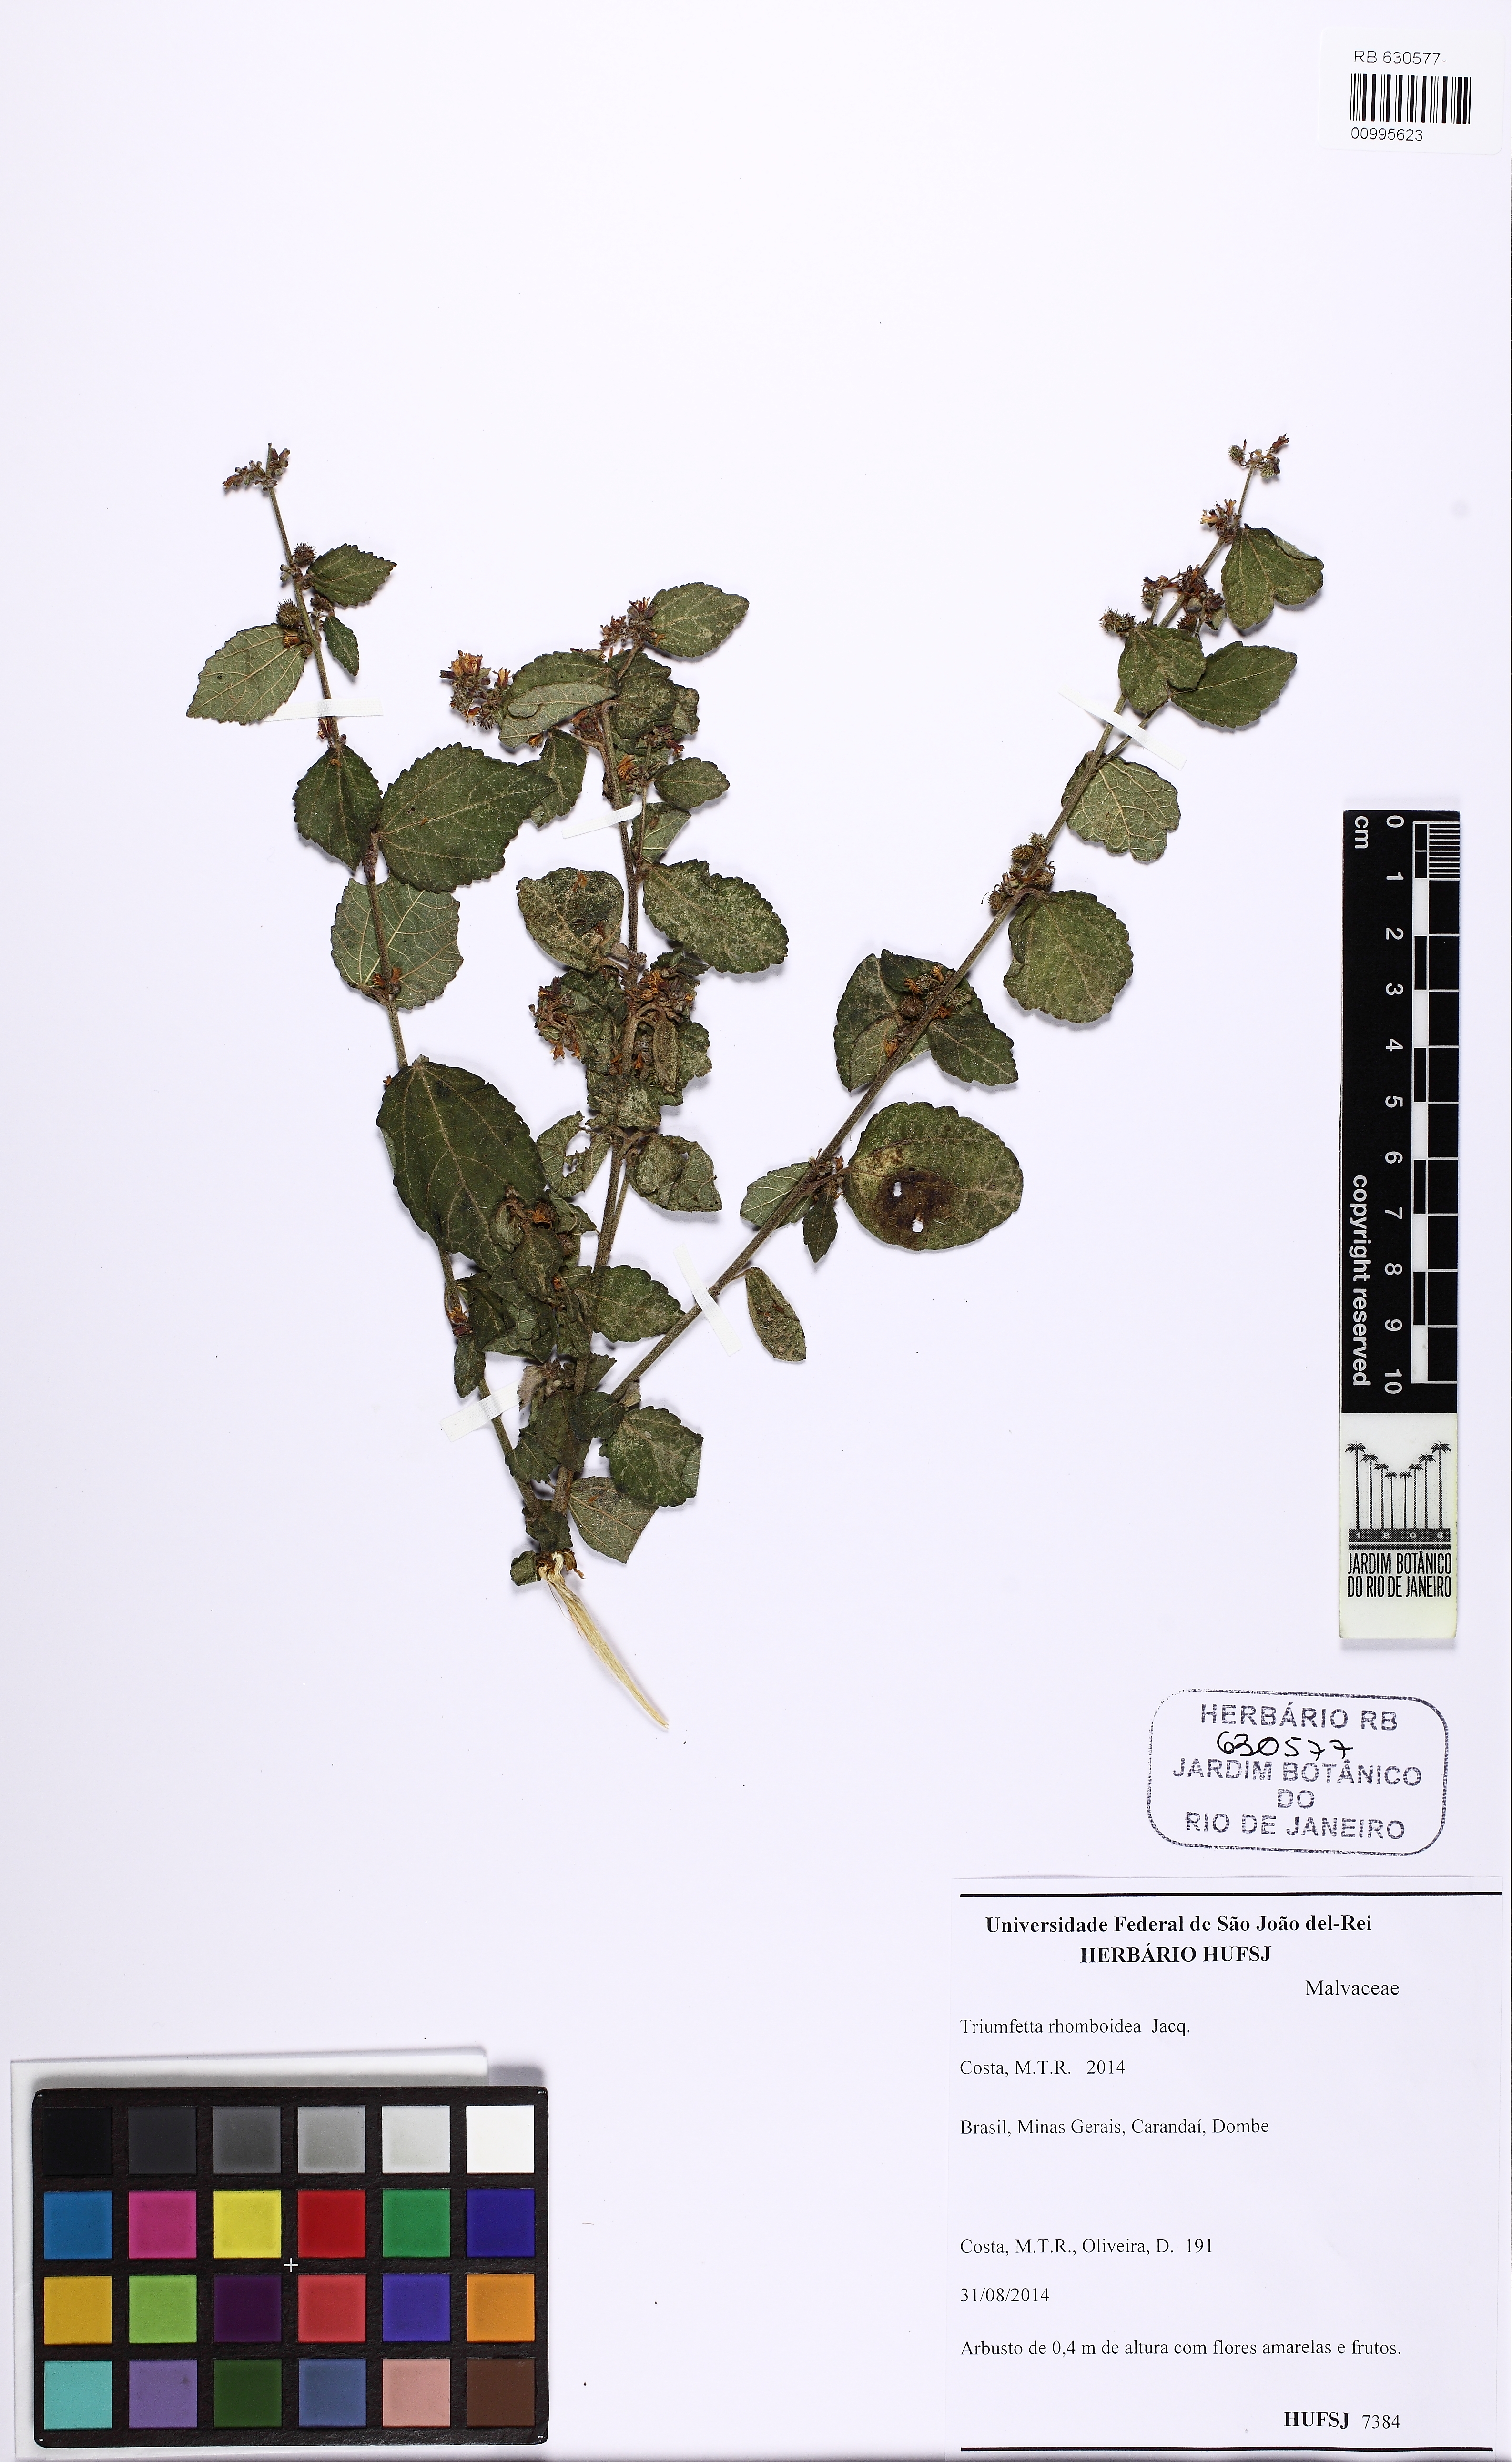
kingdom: Plantae
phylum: Tracheophyta
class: Magnoliopsida
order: Malvales
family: Malvaceae
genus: Triumfetta
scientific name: Triumfetta rhomboidea
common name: Diamond burbark
